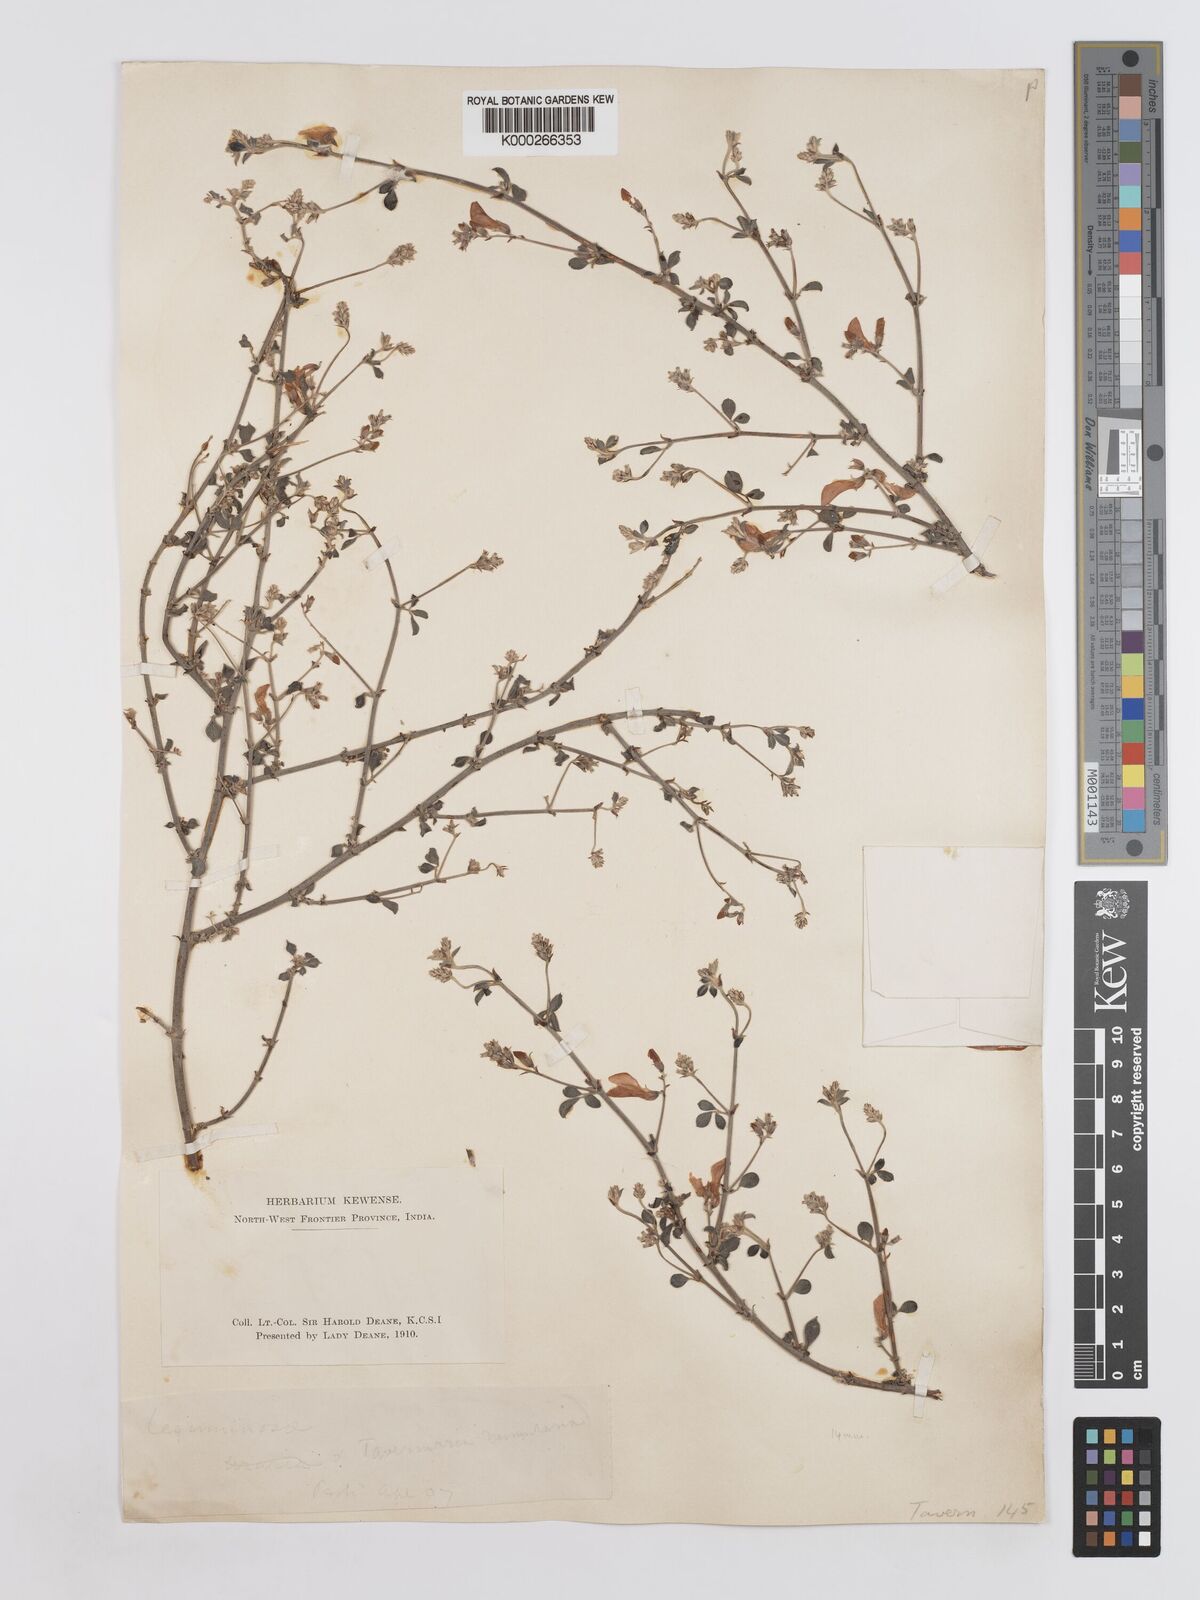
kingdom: Plantae
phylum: Tracheophyta
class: Magnoliopsida
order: Fabales
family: Fabaceae
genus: Taverniera
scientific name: Taverniera nummularia
